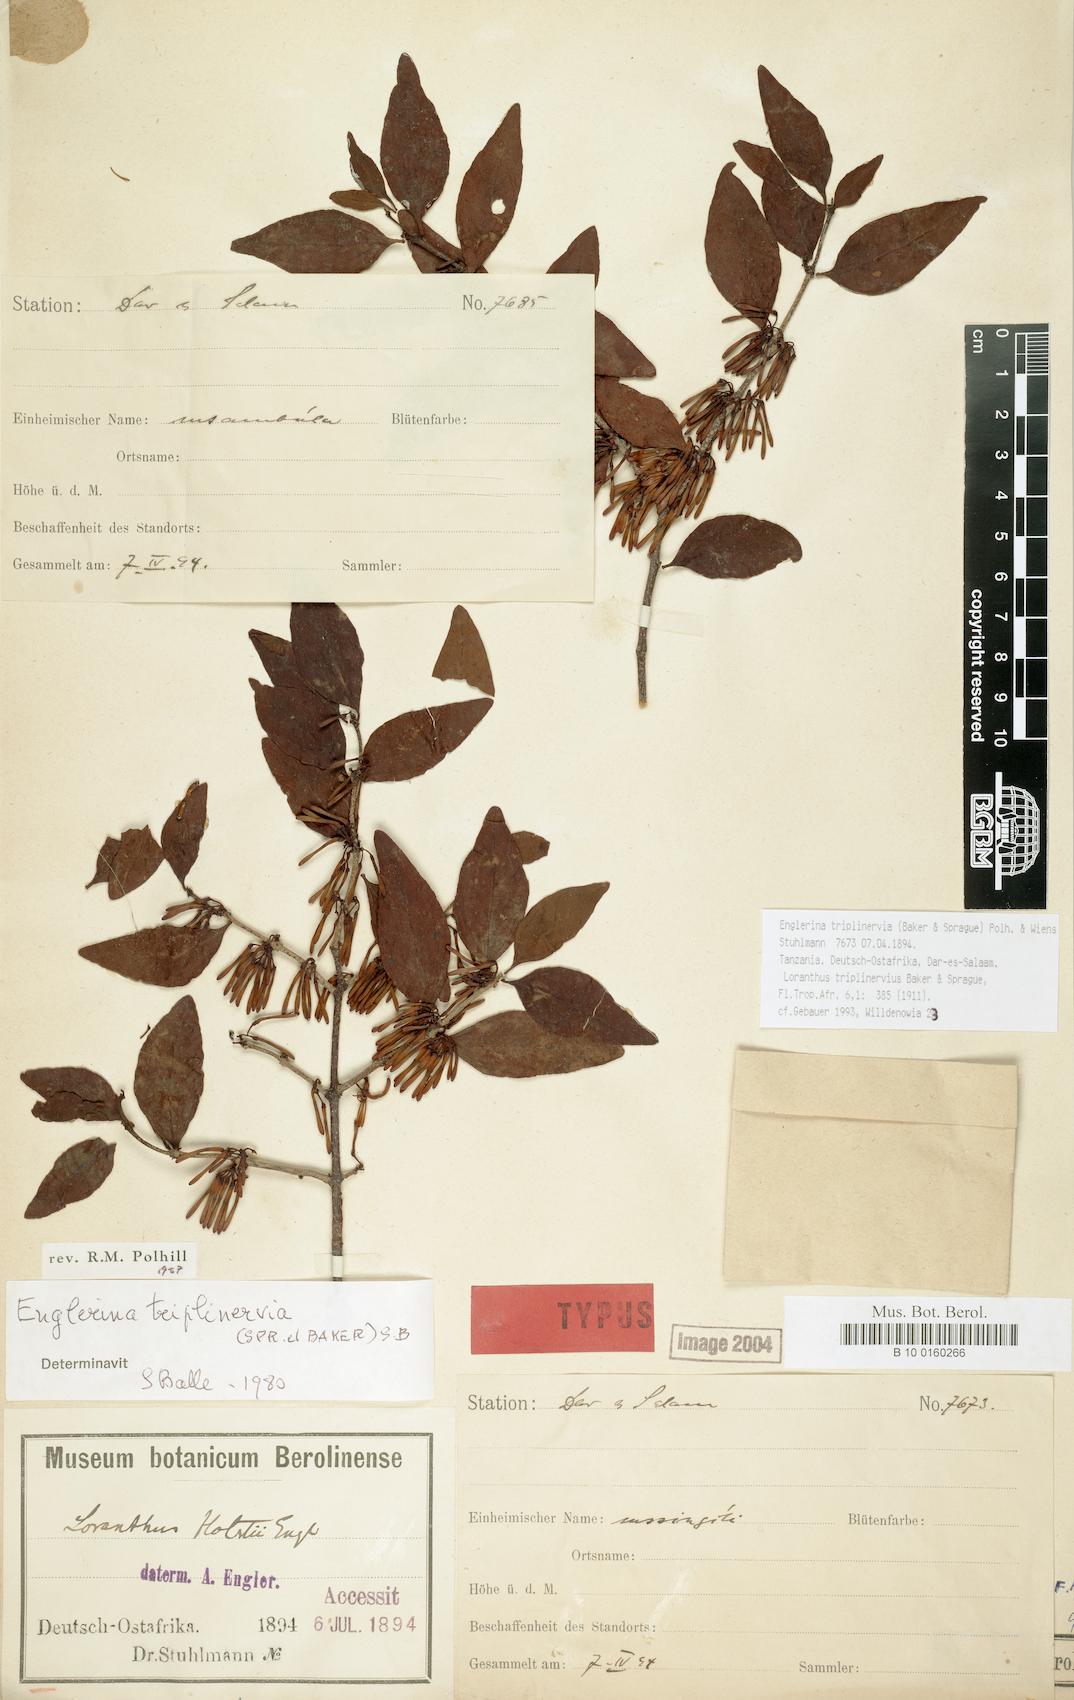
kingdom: Plantae
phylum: Tracheophyta
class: Magnoliopsida
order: Santalales
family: Loranthaceae
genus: Englerina
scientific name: Englerina triplinervia
